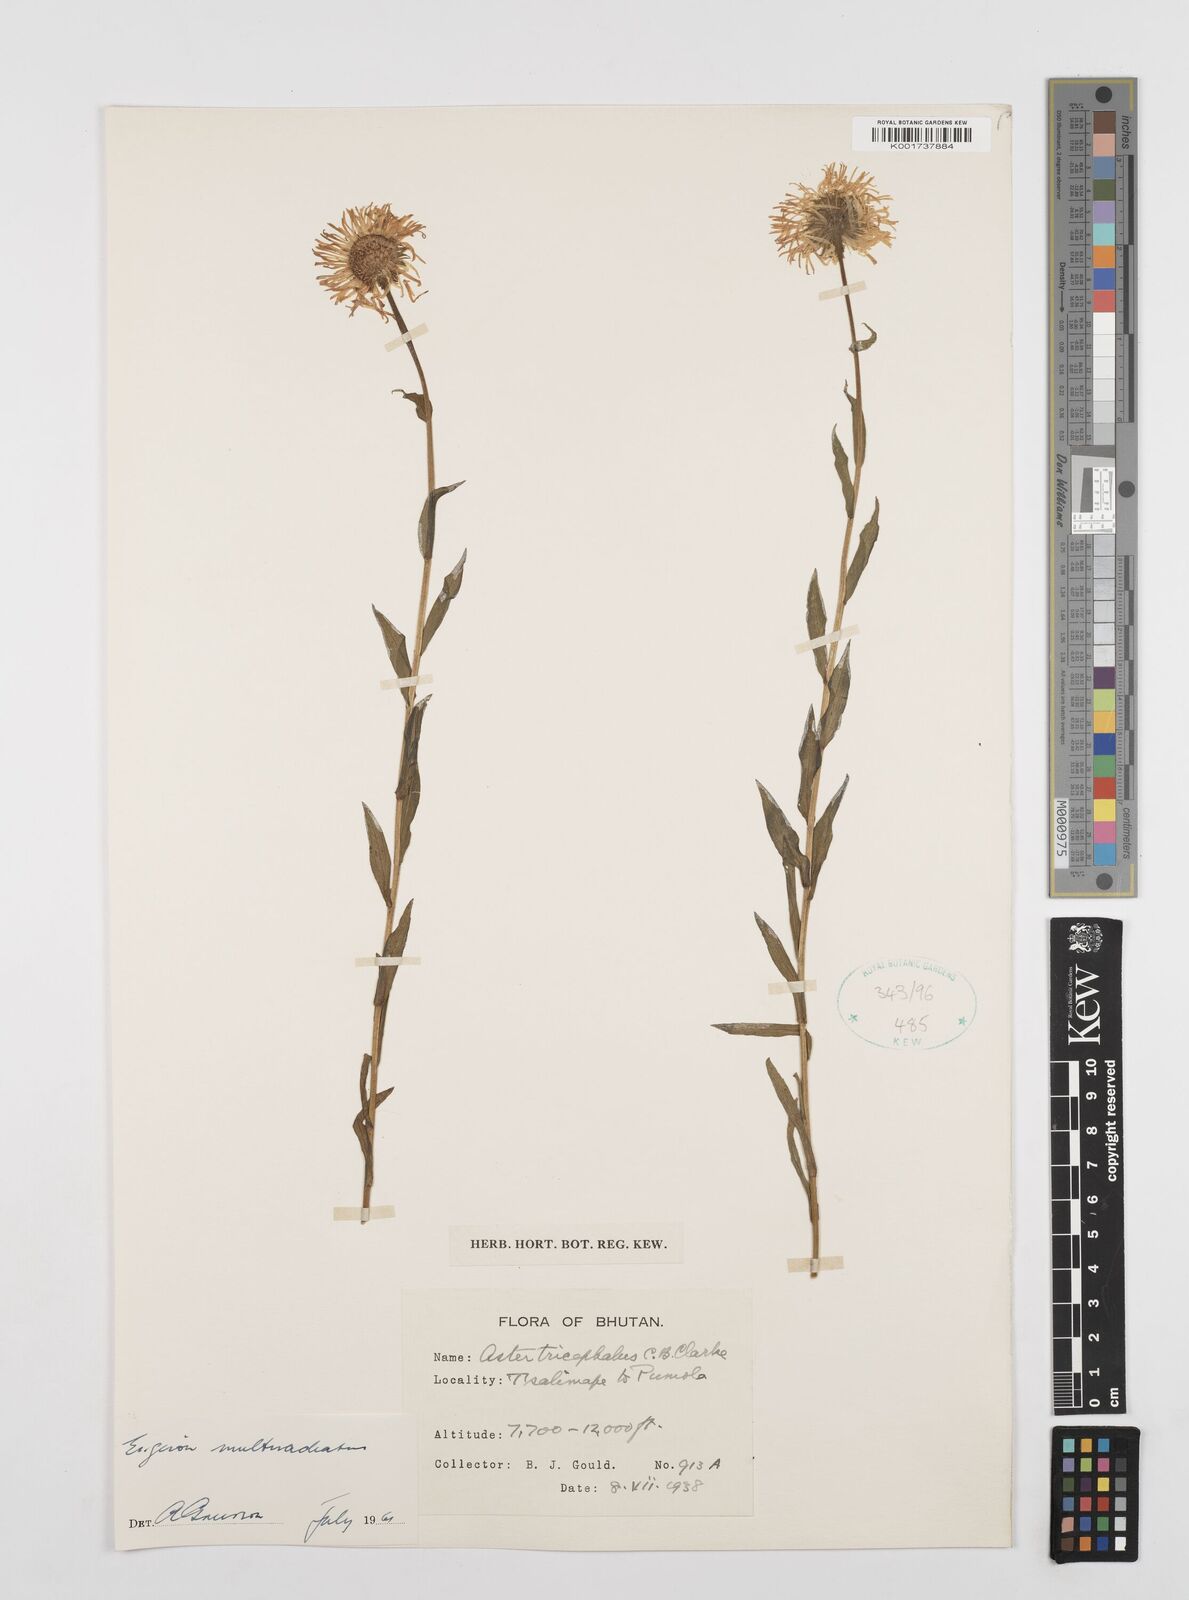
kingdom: Plantae
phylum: Tracheophyta
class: Magnoliopsida
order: Asterales
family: Asteraceae
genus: Erigeron
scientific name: Erigeron multiradiatus
